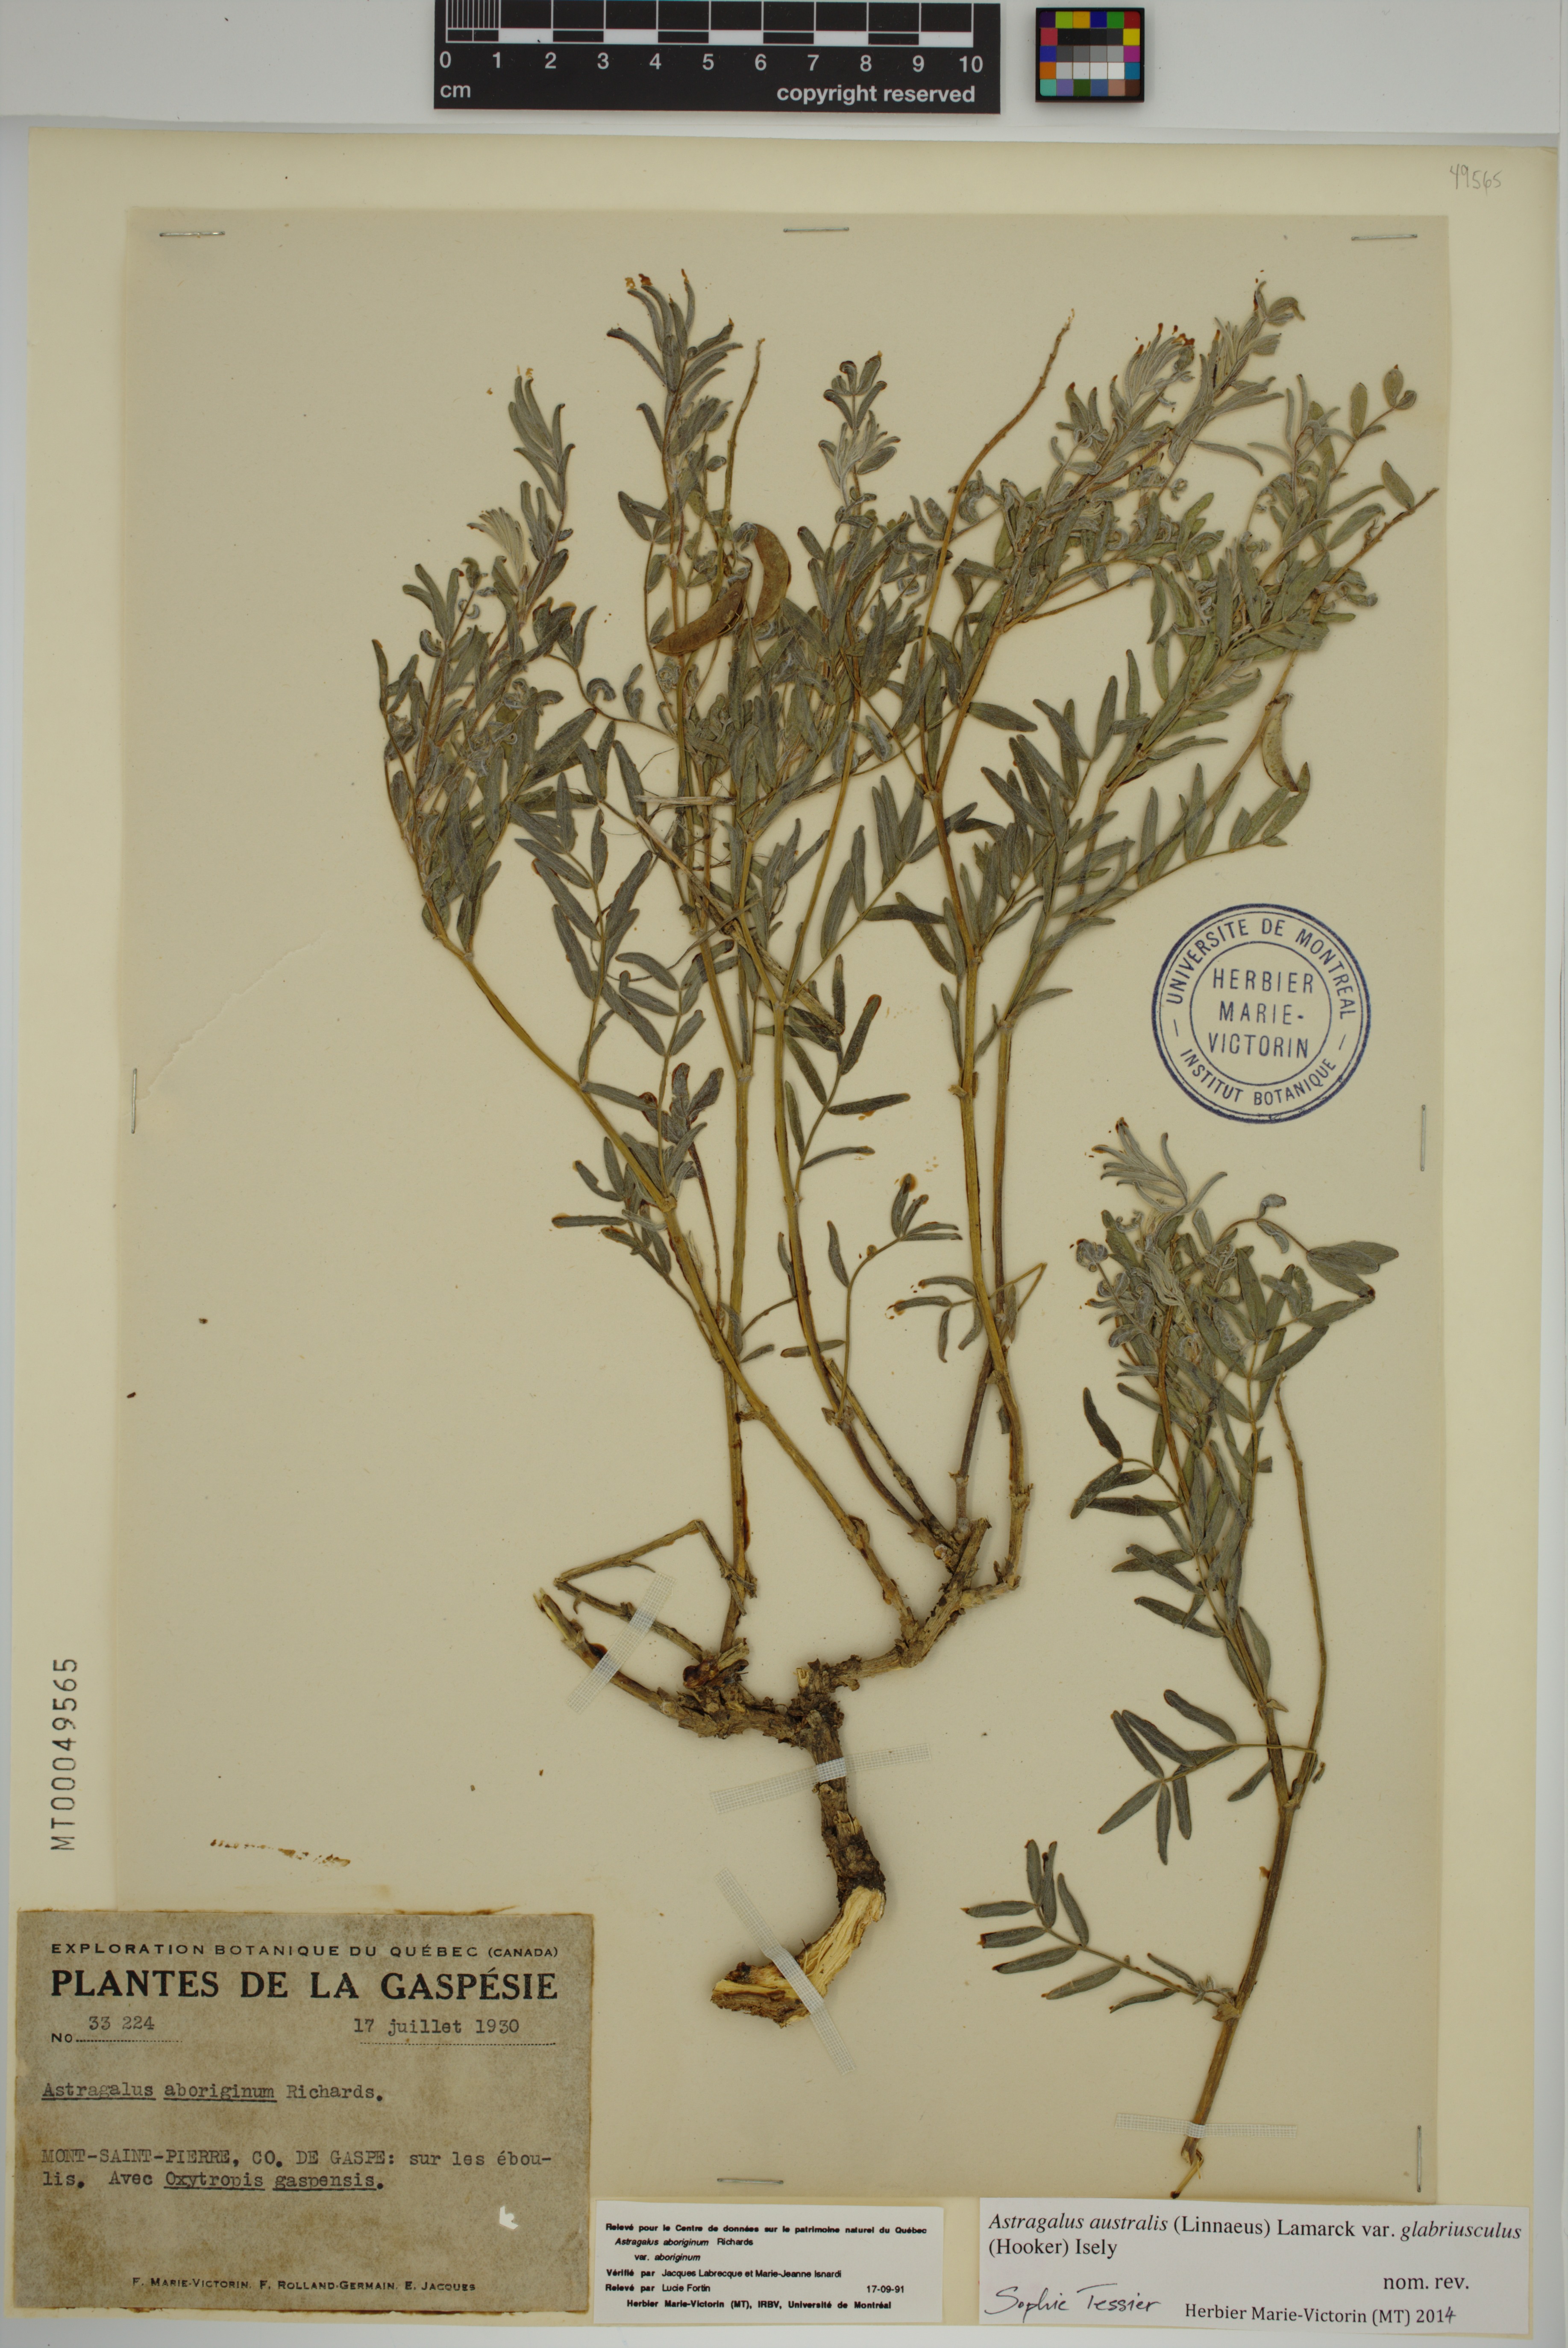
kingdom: Plantae
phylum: Tracheophyta
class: Magnoliopsida
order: Fabales
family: Fabaceae
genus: Astragalus
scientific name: Astragalus aboriginorum
